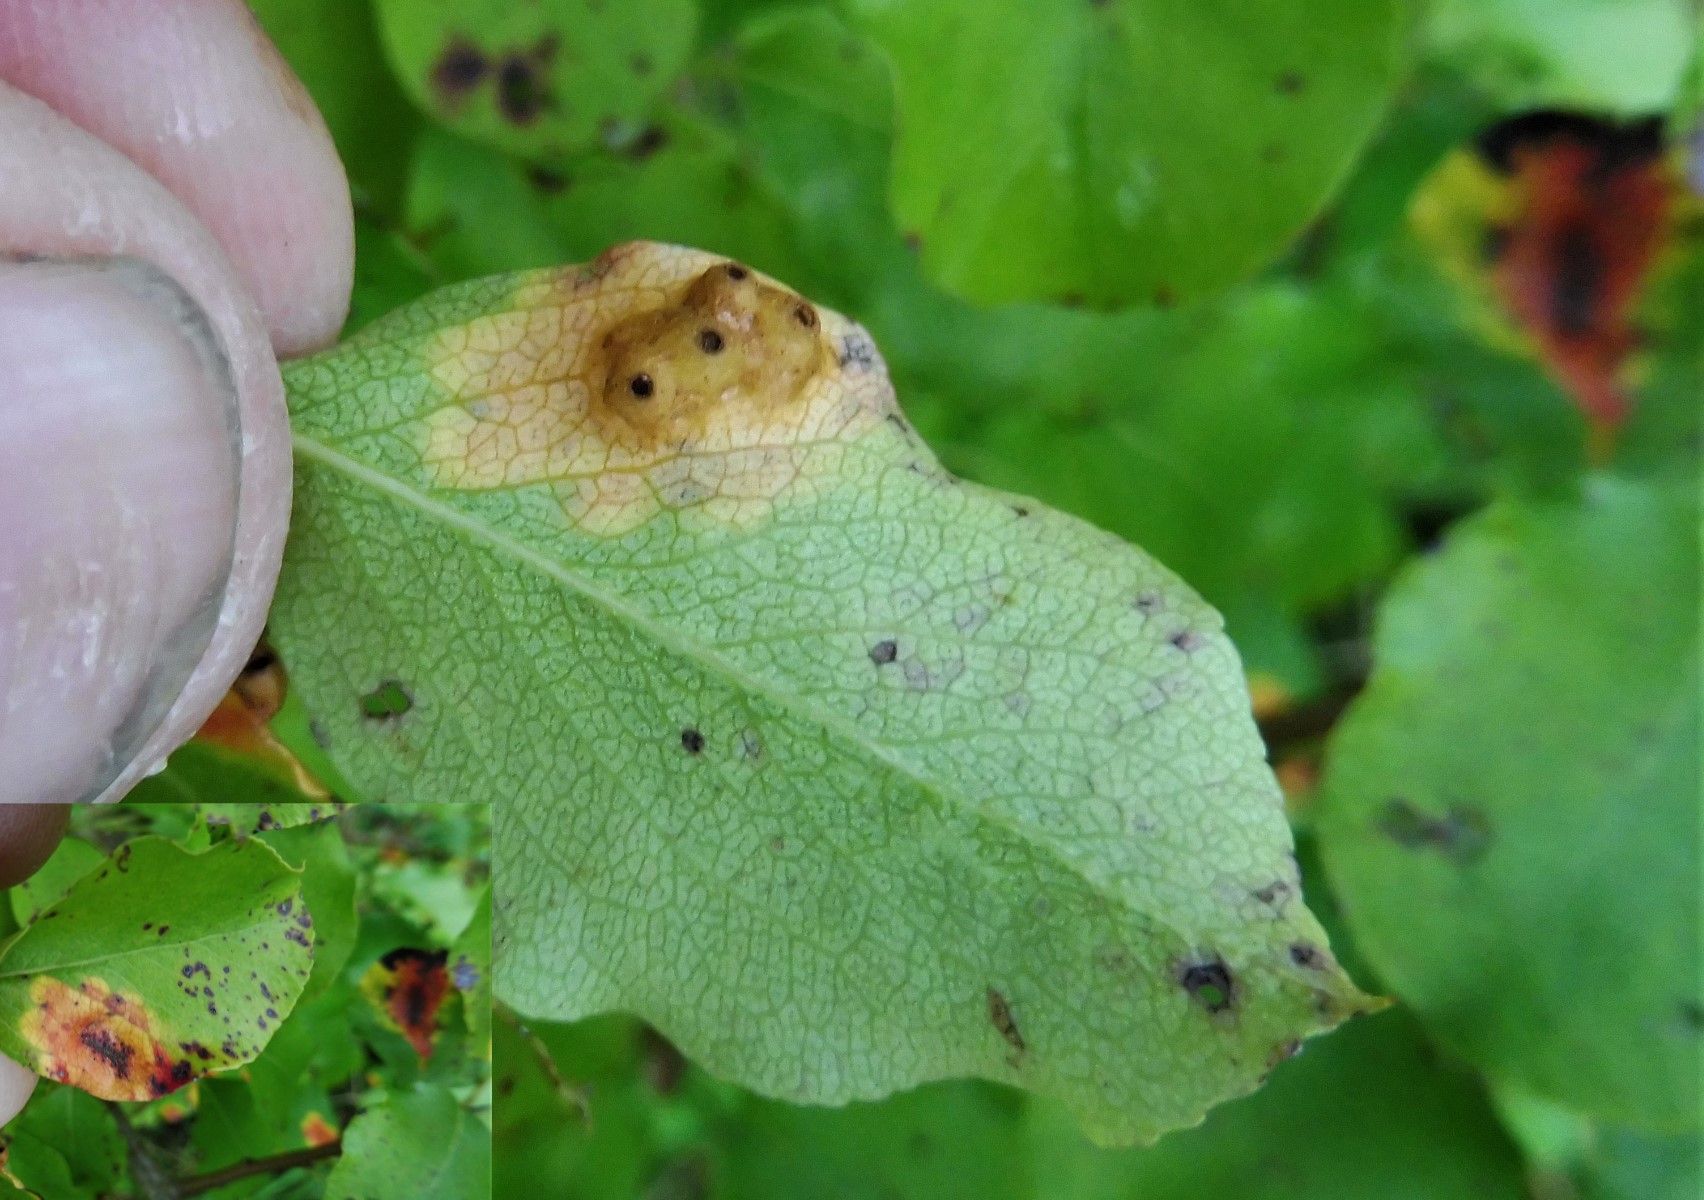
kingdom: Fungi
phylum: Basidiomycota
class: Pucciniomycetes
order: Pucciniales
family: Gymnosporangiaceae
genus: Gymnosporangium
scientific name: Gymnosporangium sabinae
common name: pæregitter-bævrerust
